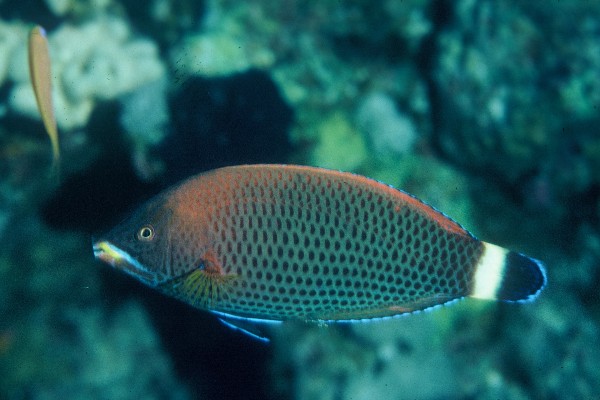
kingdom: Animalia
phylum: Chordata
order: Perciformes
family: Labridae
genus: Pseudodax
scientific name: Pseudodax moluccanus
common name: Chiseltooth wrasse
